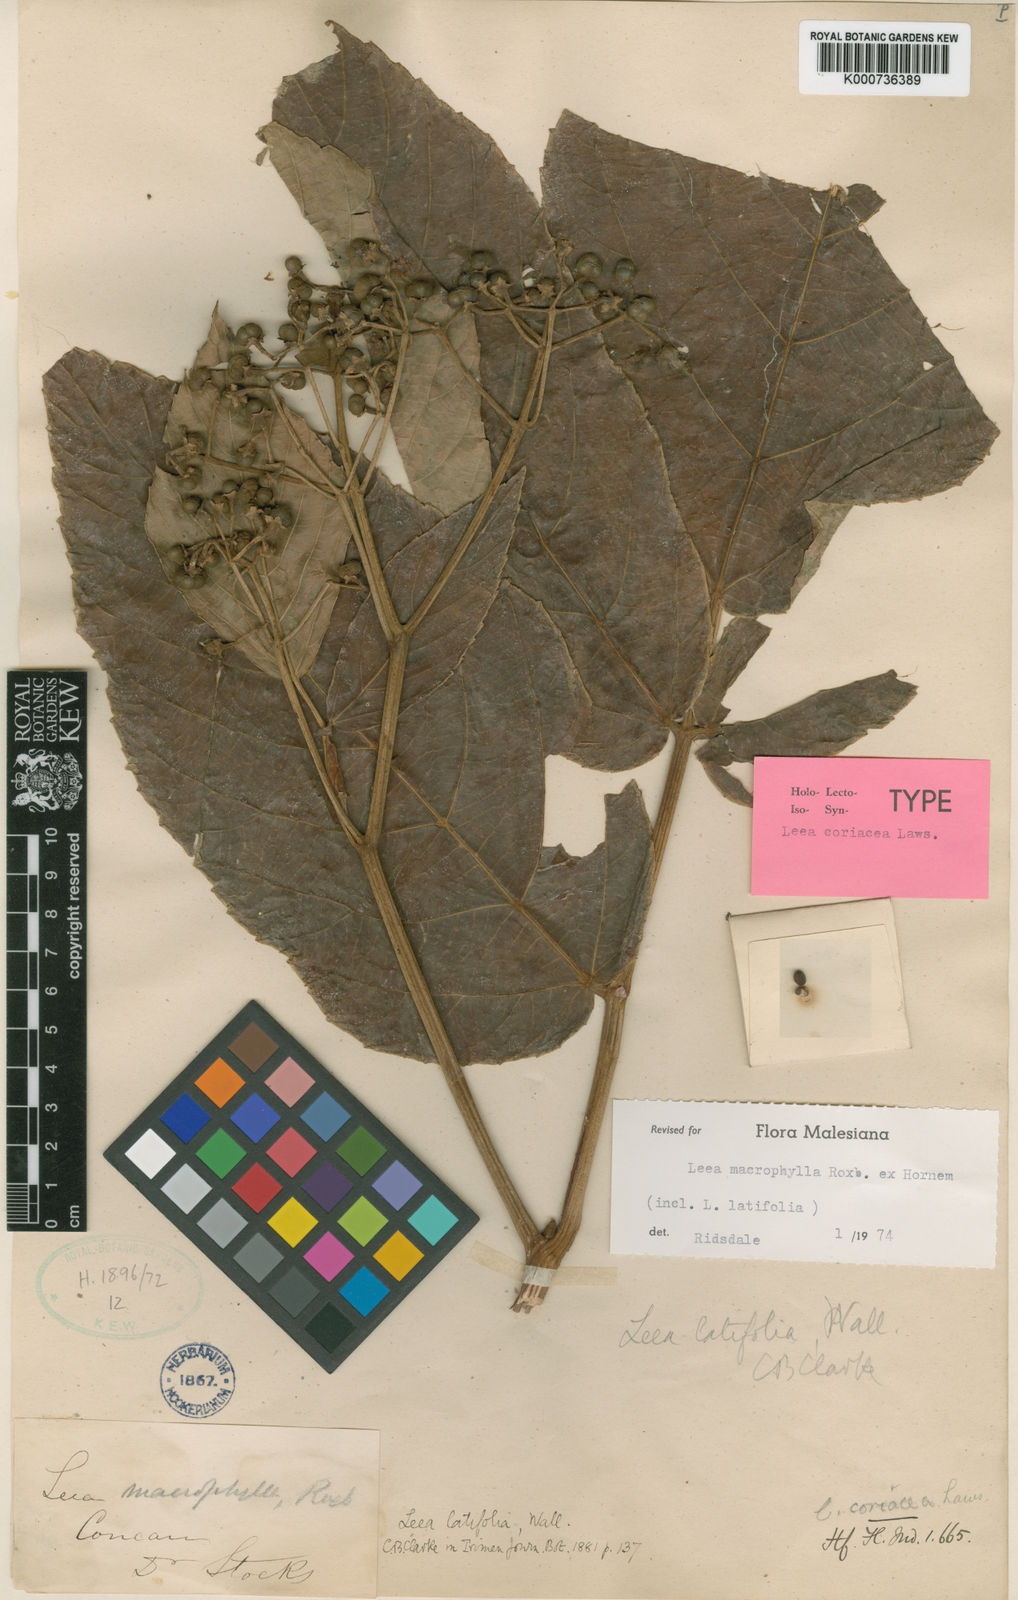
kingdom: Plantae
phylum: Tracheophyta
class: Magnoliopsida
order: Vitales
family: Vitaceae
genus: Leea
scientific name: Leea macrophylla
